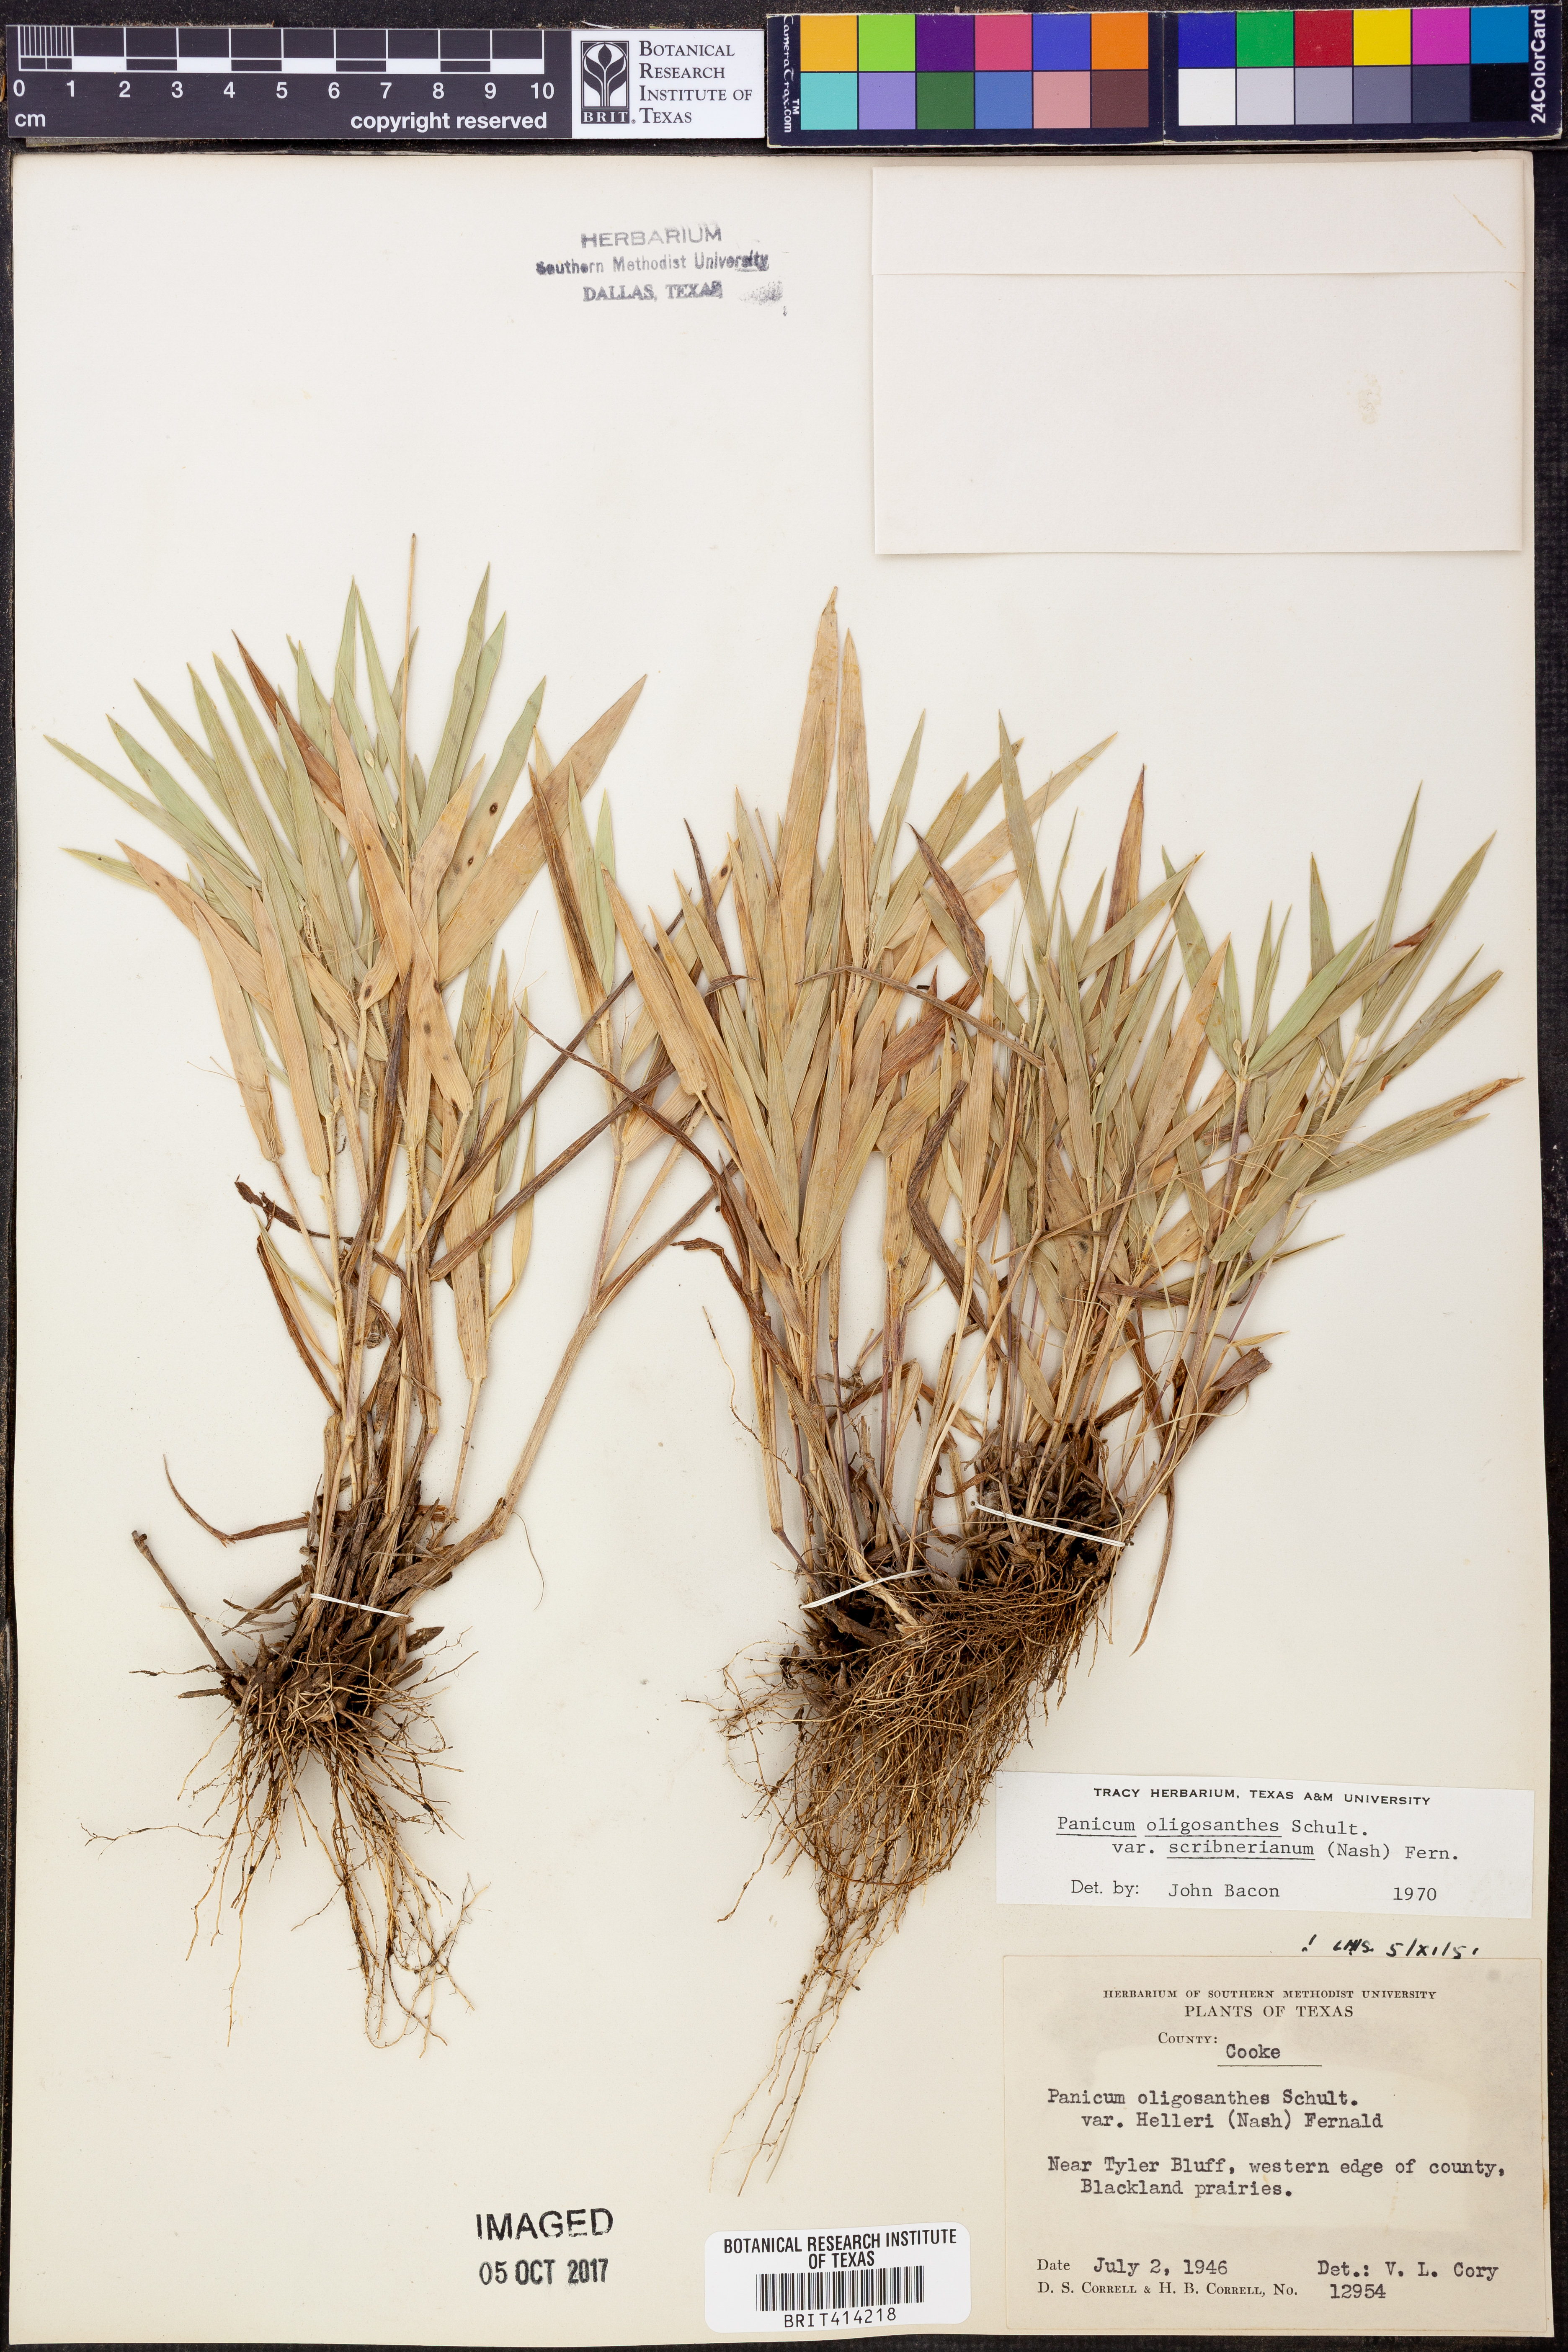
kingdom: Plantae
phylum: Tracheophyta
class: Liliopsida
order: Poales
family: Poaceae
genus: Dichanthelium
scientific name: Dichanthelium scribnerianum
